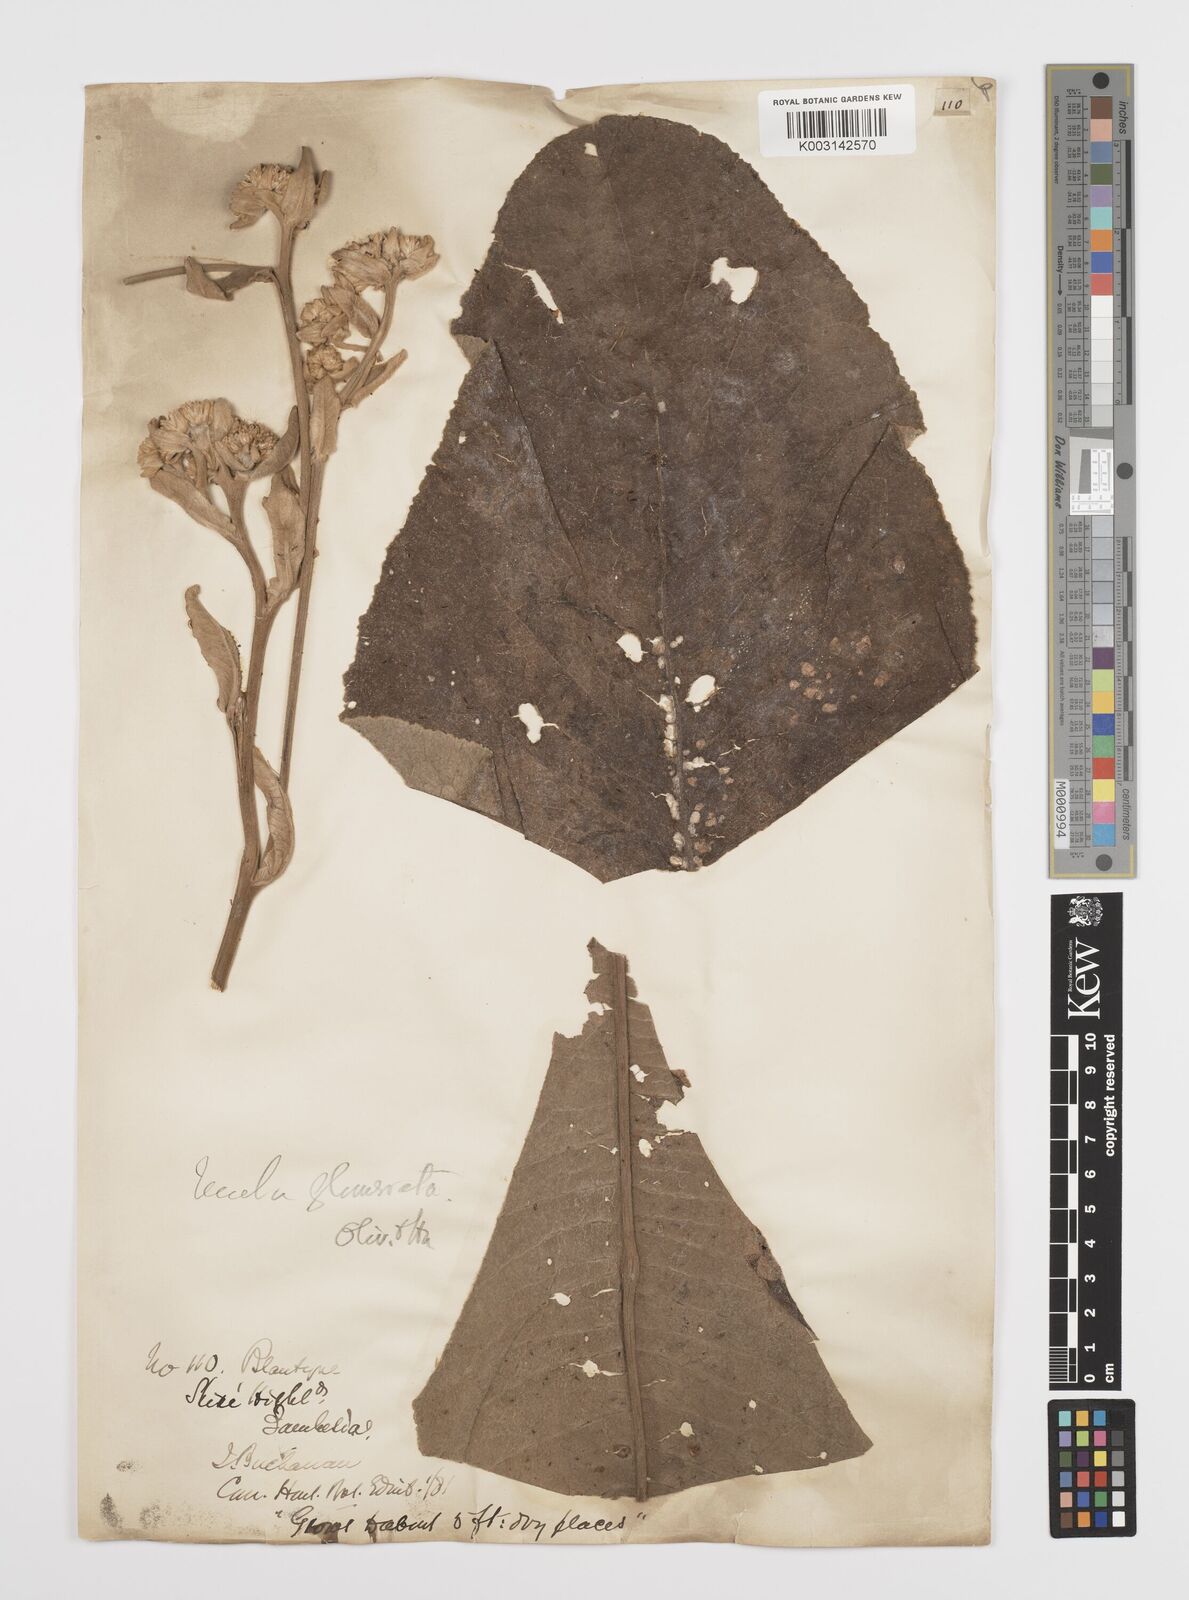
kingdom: Plantae
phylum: Tracheophyta
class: Magnoliopsida
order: Asterales
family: Asteraceae
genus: Inula
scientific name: Inula glomerata
